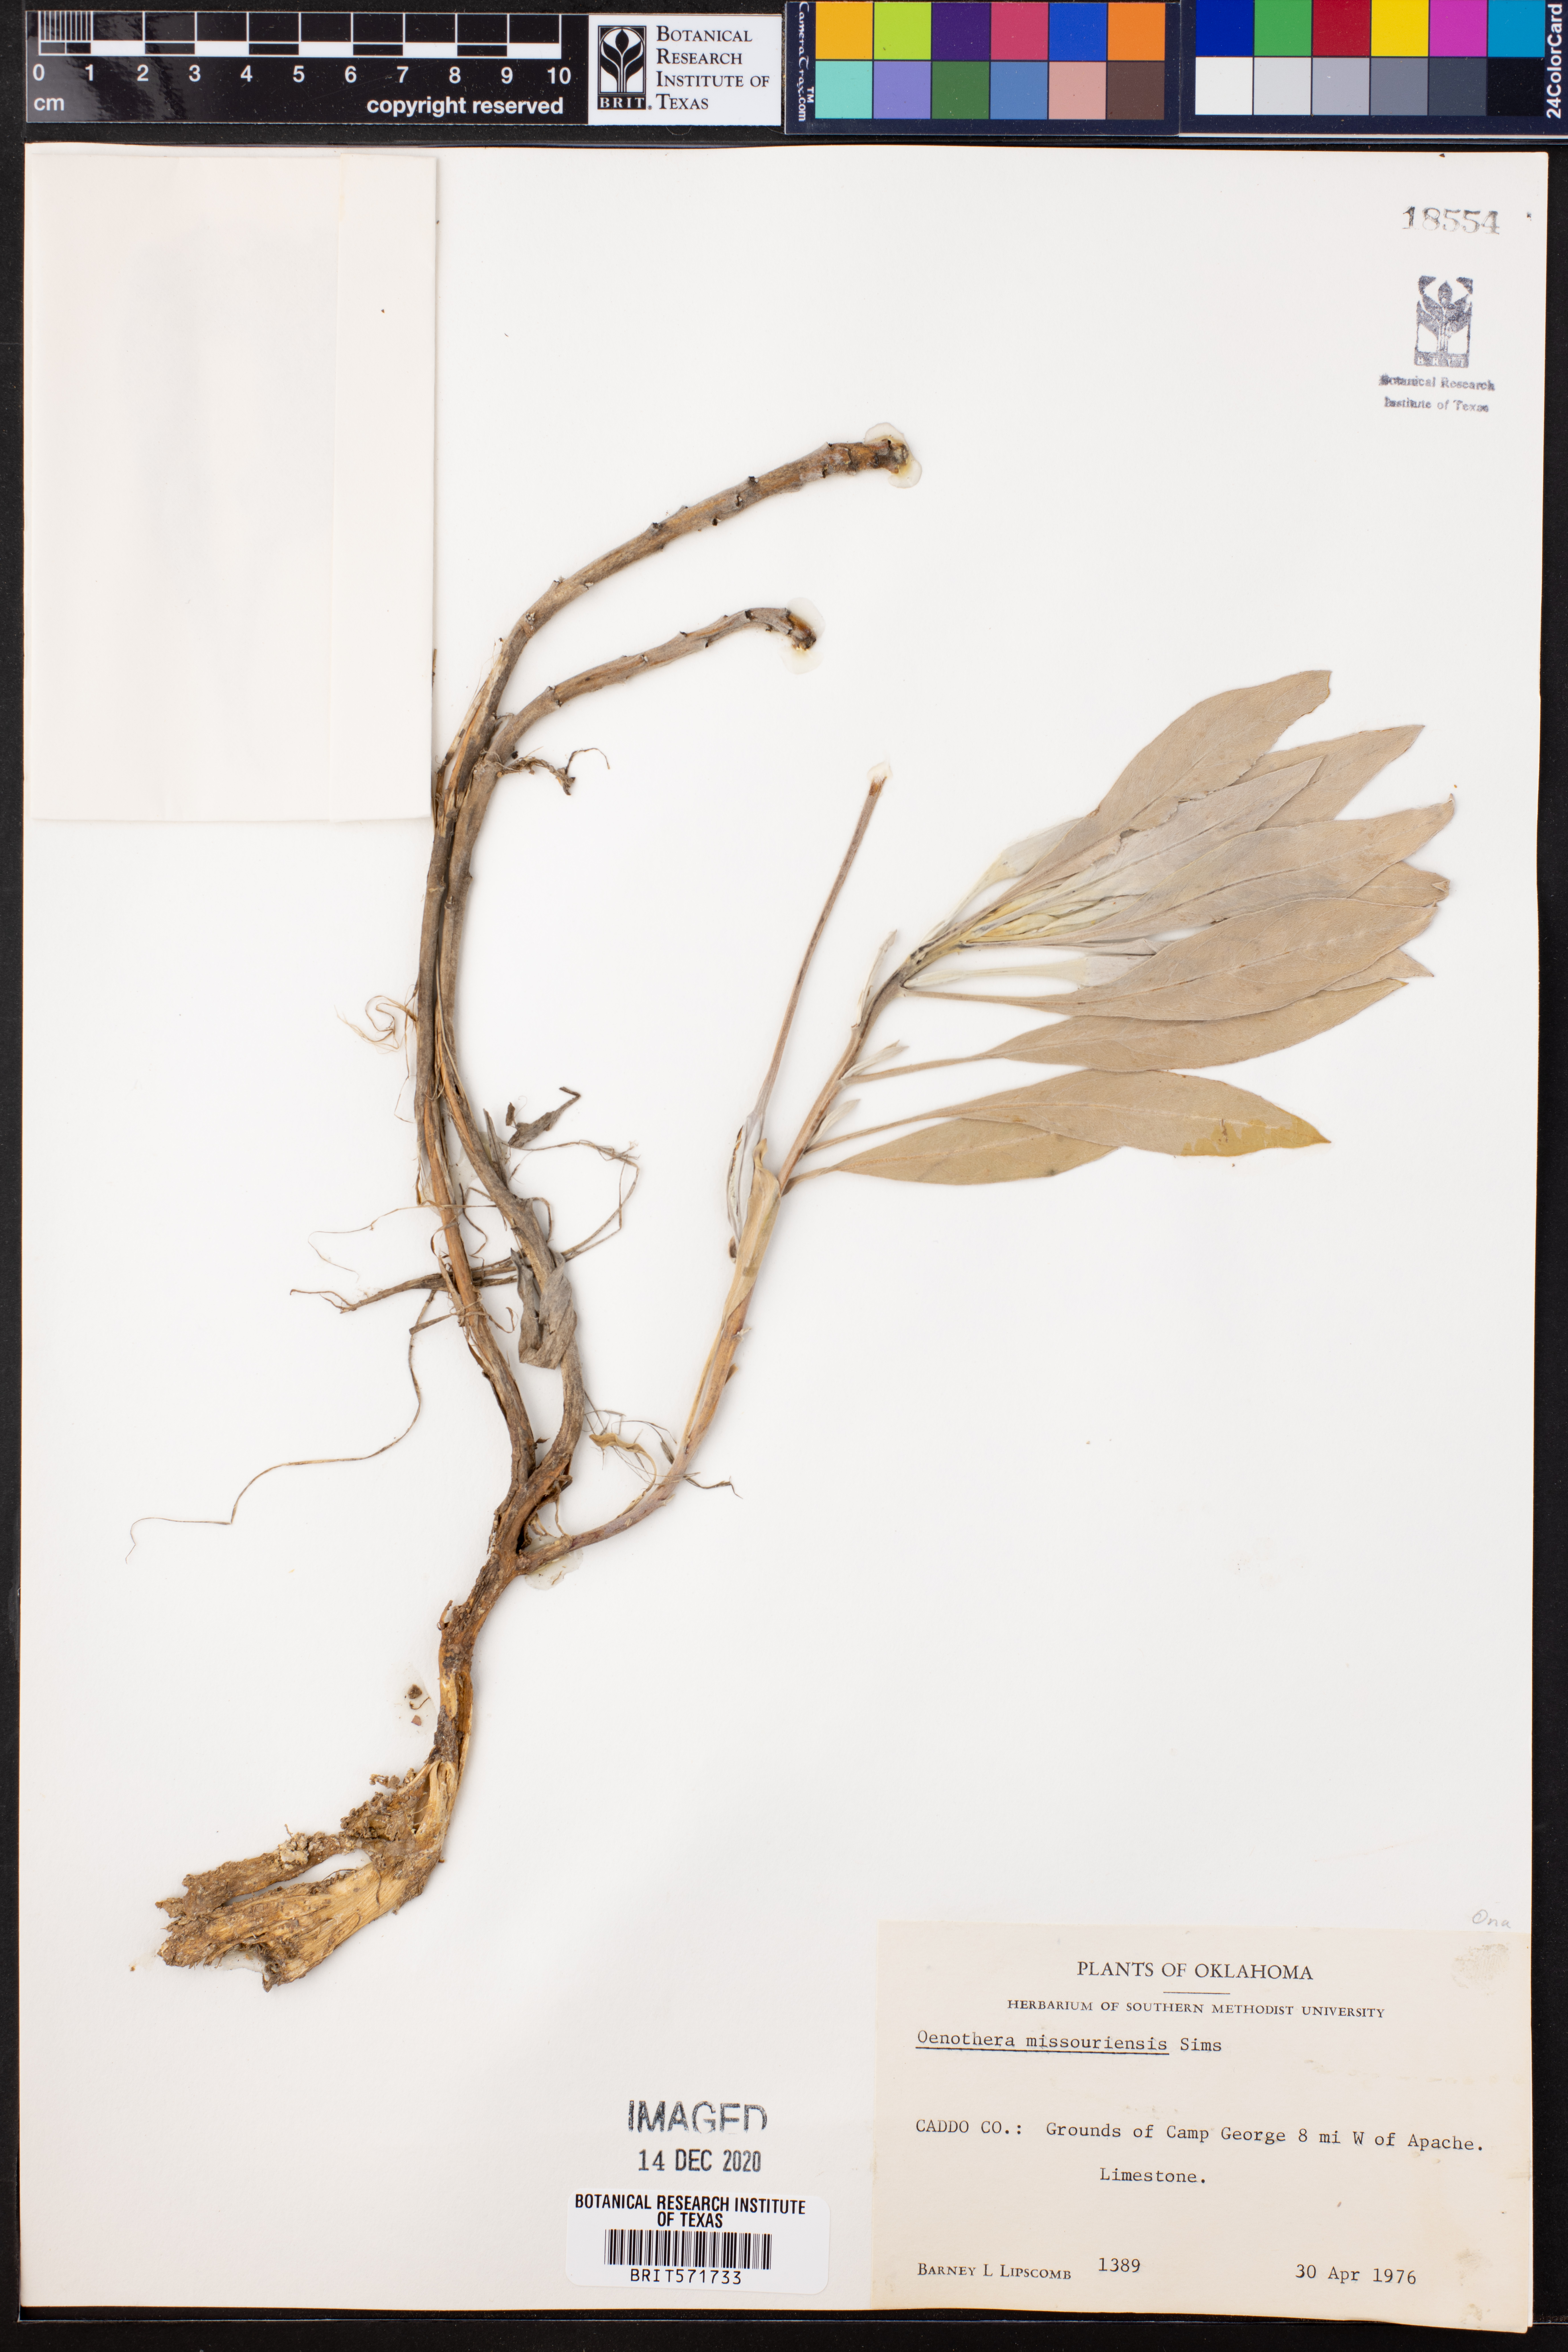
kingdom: Plantae
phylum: Tracheophyta
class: Magnoliopsida
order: Myrtales
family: Onagraceae
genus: Oenothera
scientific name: Oenothera macrocarpa
